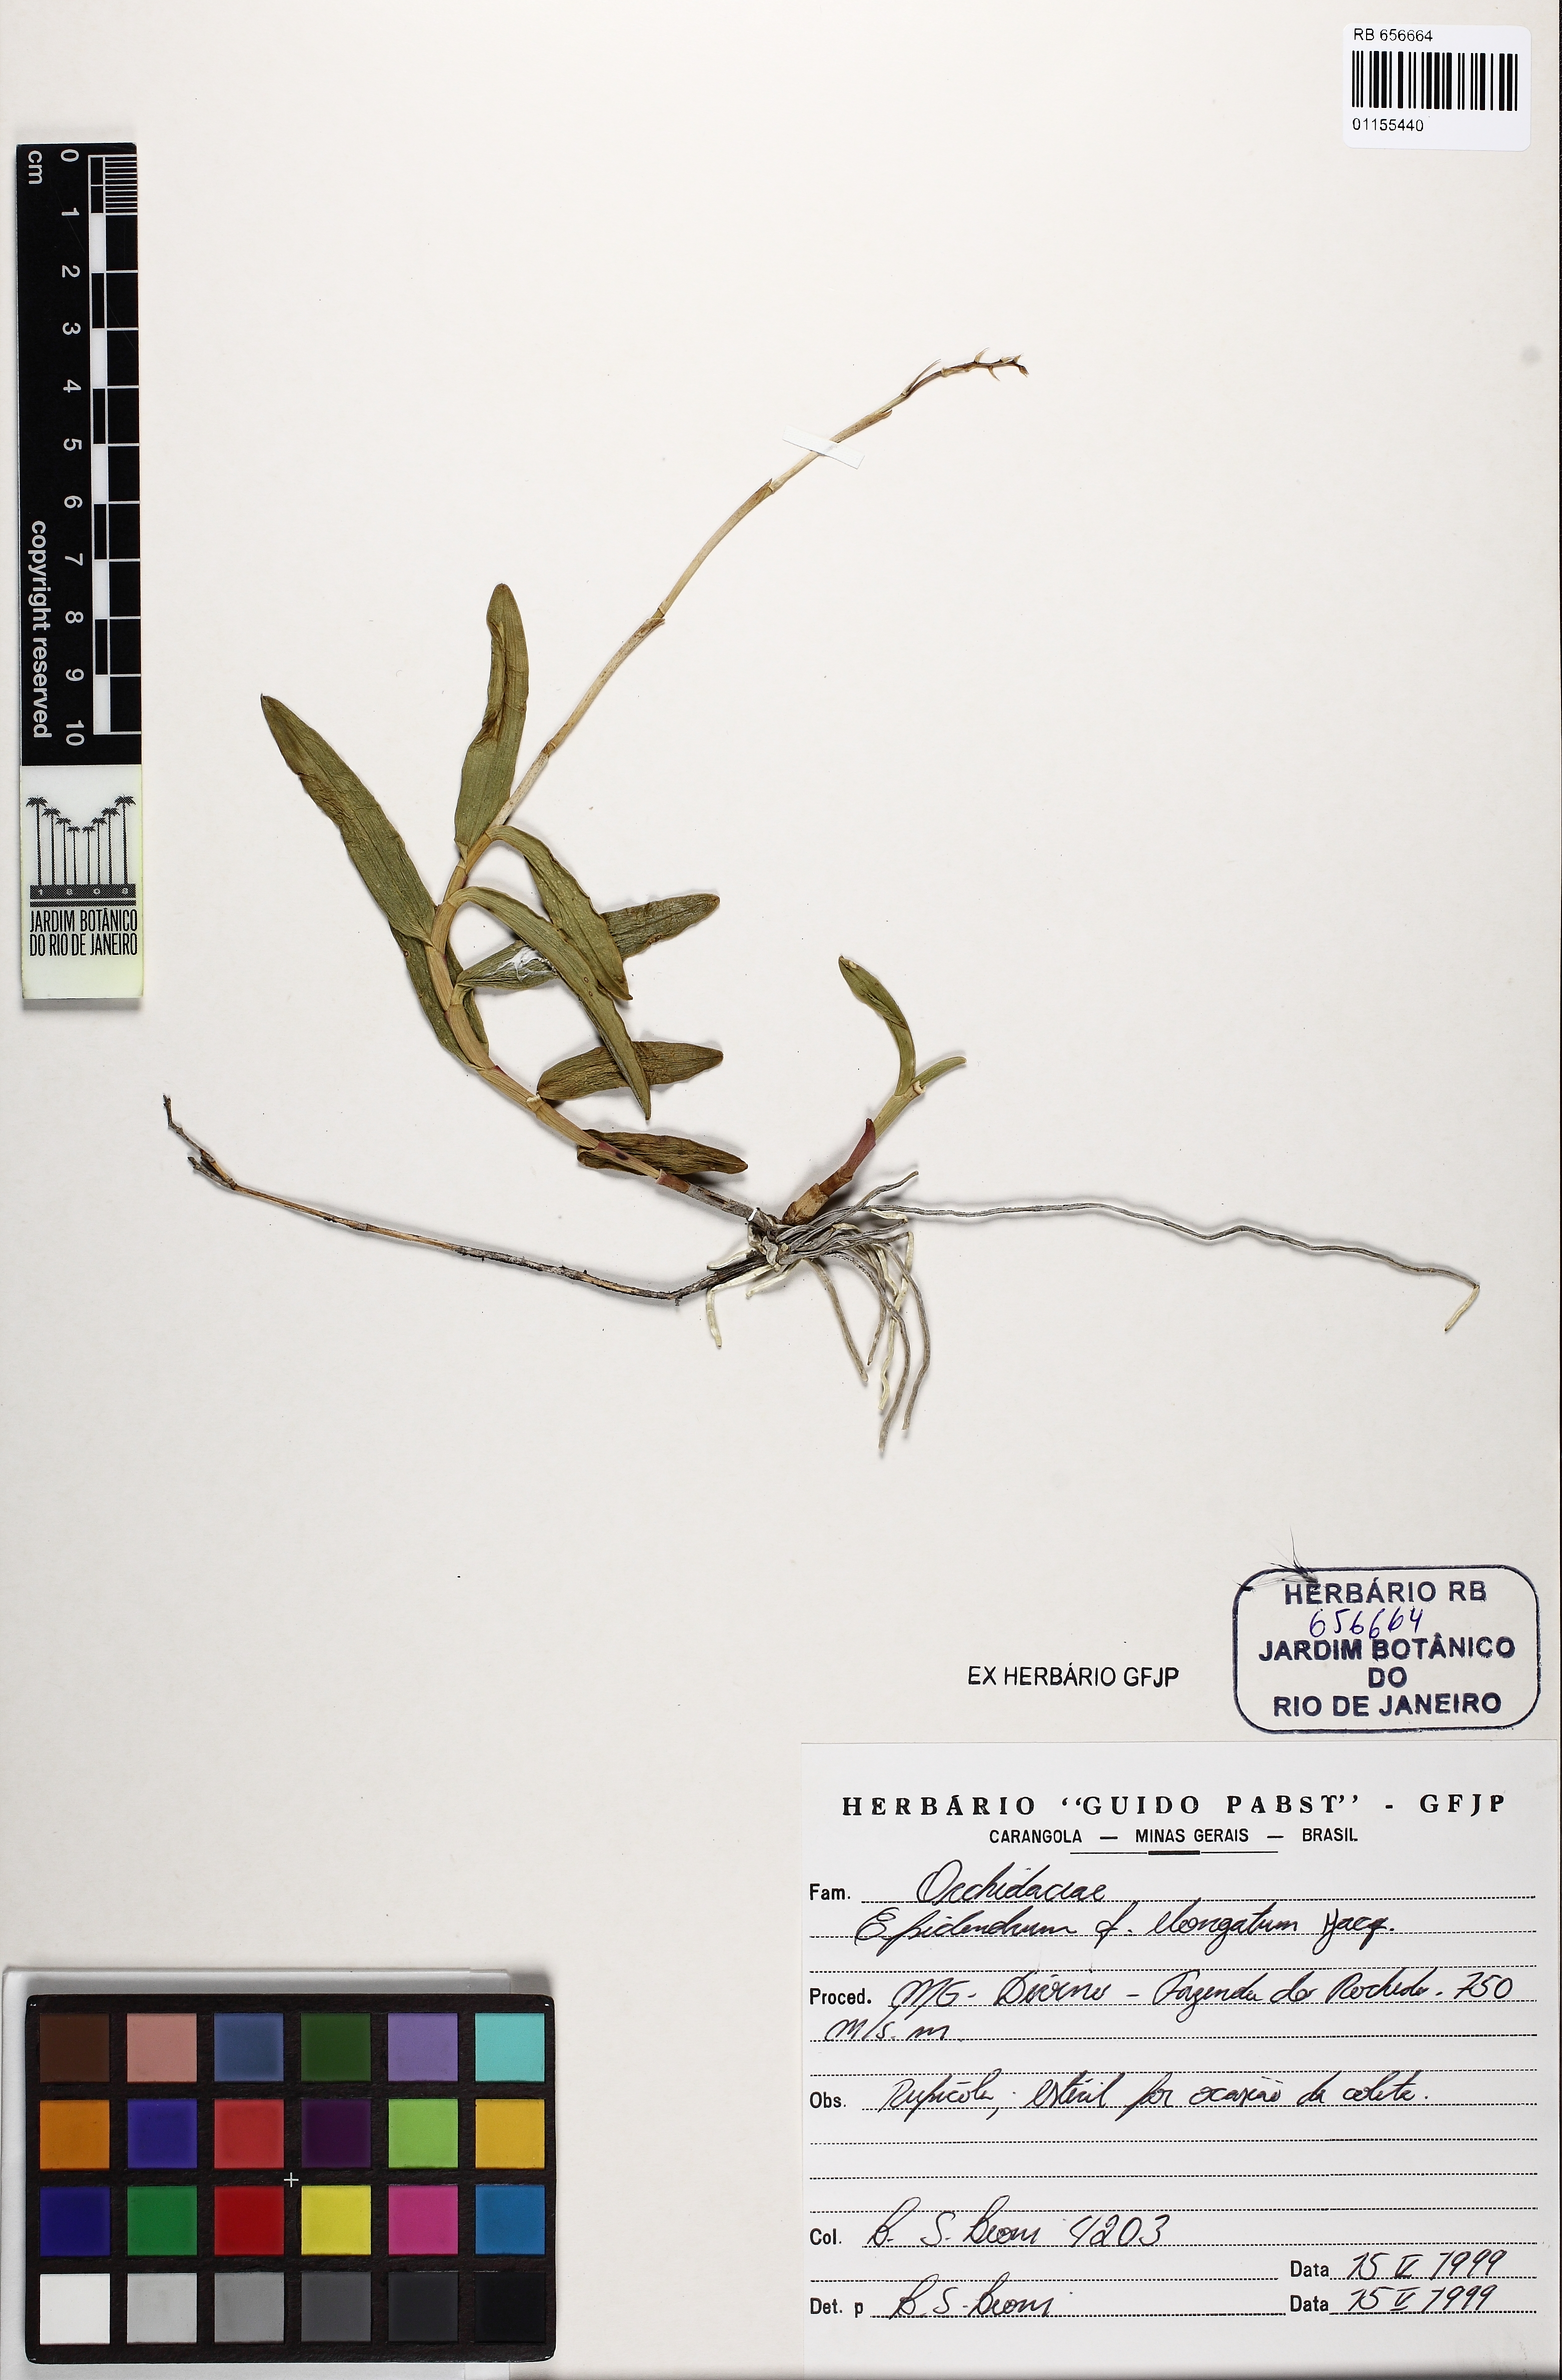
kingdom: Plantae
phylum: Tracheophyta
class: Liliopsida
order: Asparagales
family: Orchidaceae
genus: Epidendrum
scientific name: Epidendrum secundum
